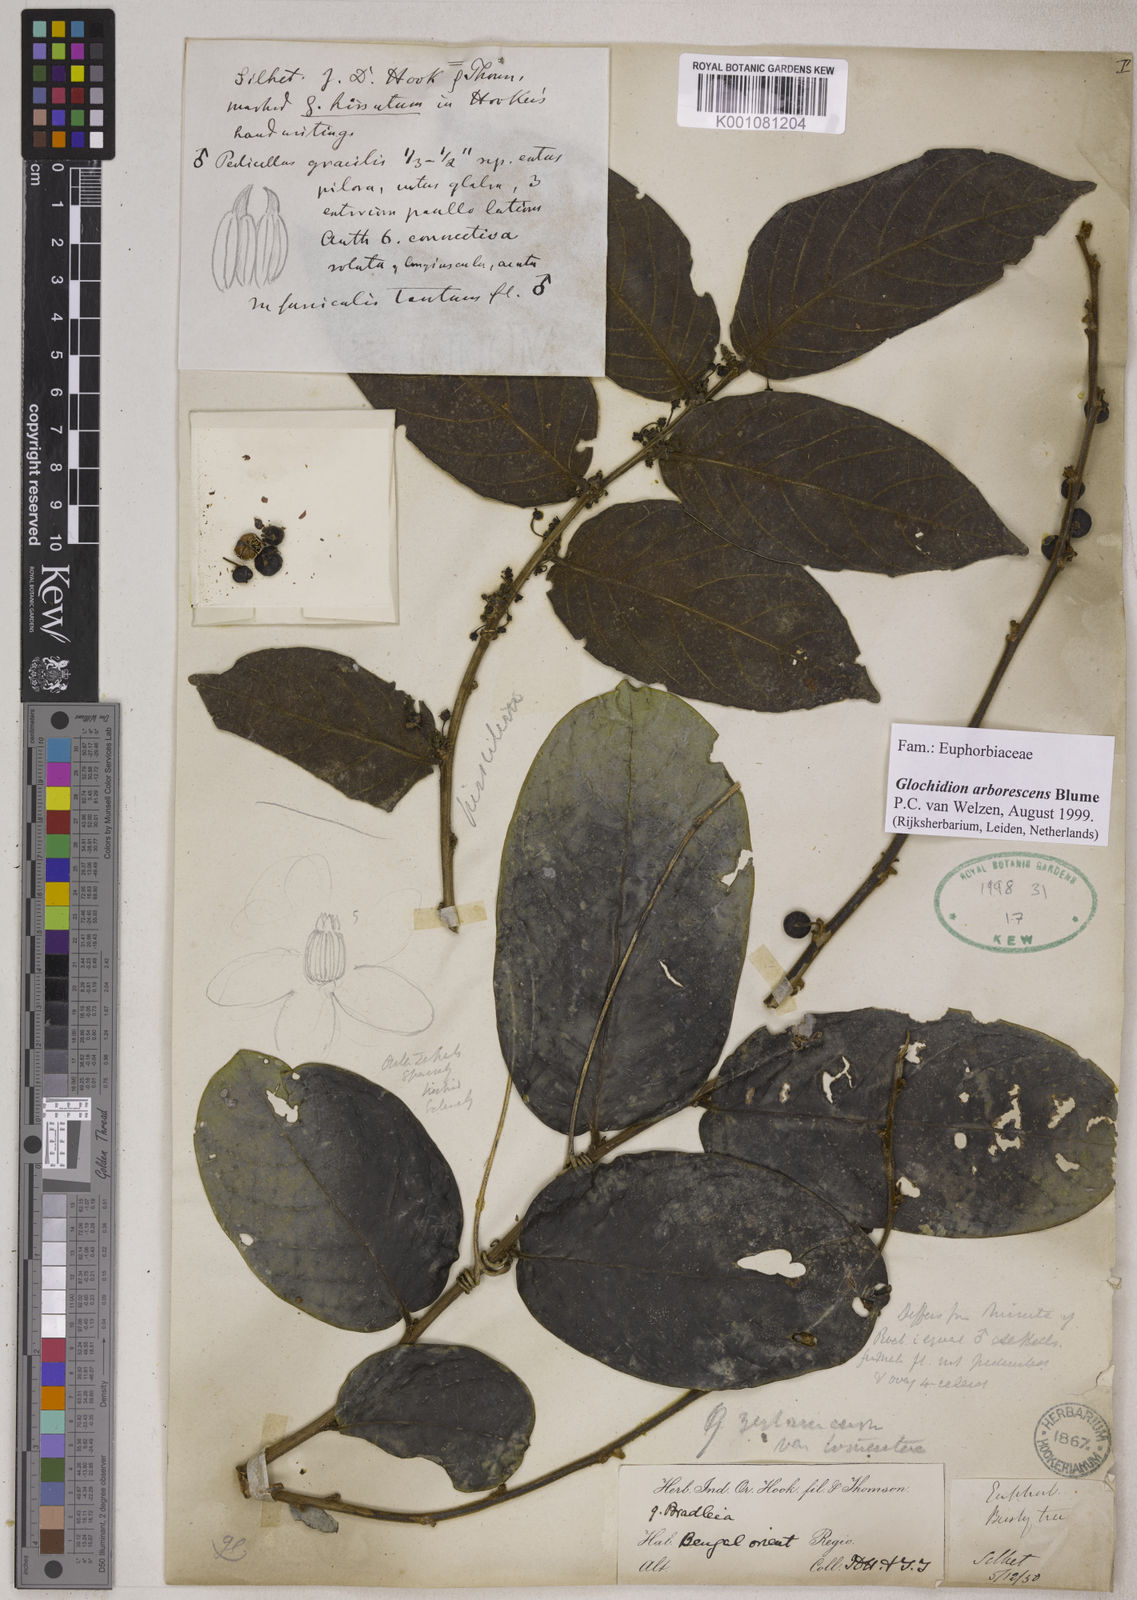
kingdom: Plantae
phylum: Tracheophyta
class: Magnoliopsida
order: Malpighiales
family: Phyllanthaceae
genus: Glochidion
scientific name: Glochidion zeylanicum
